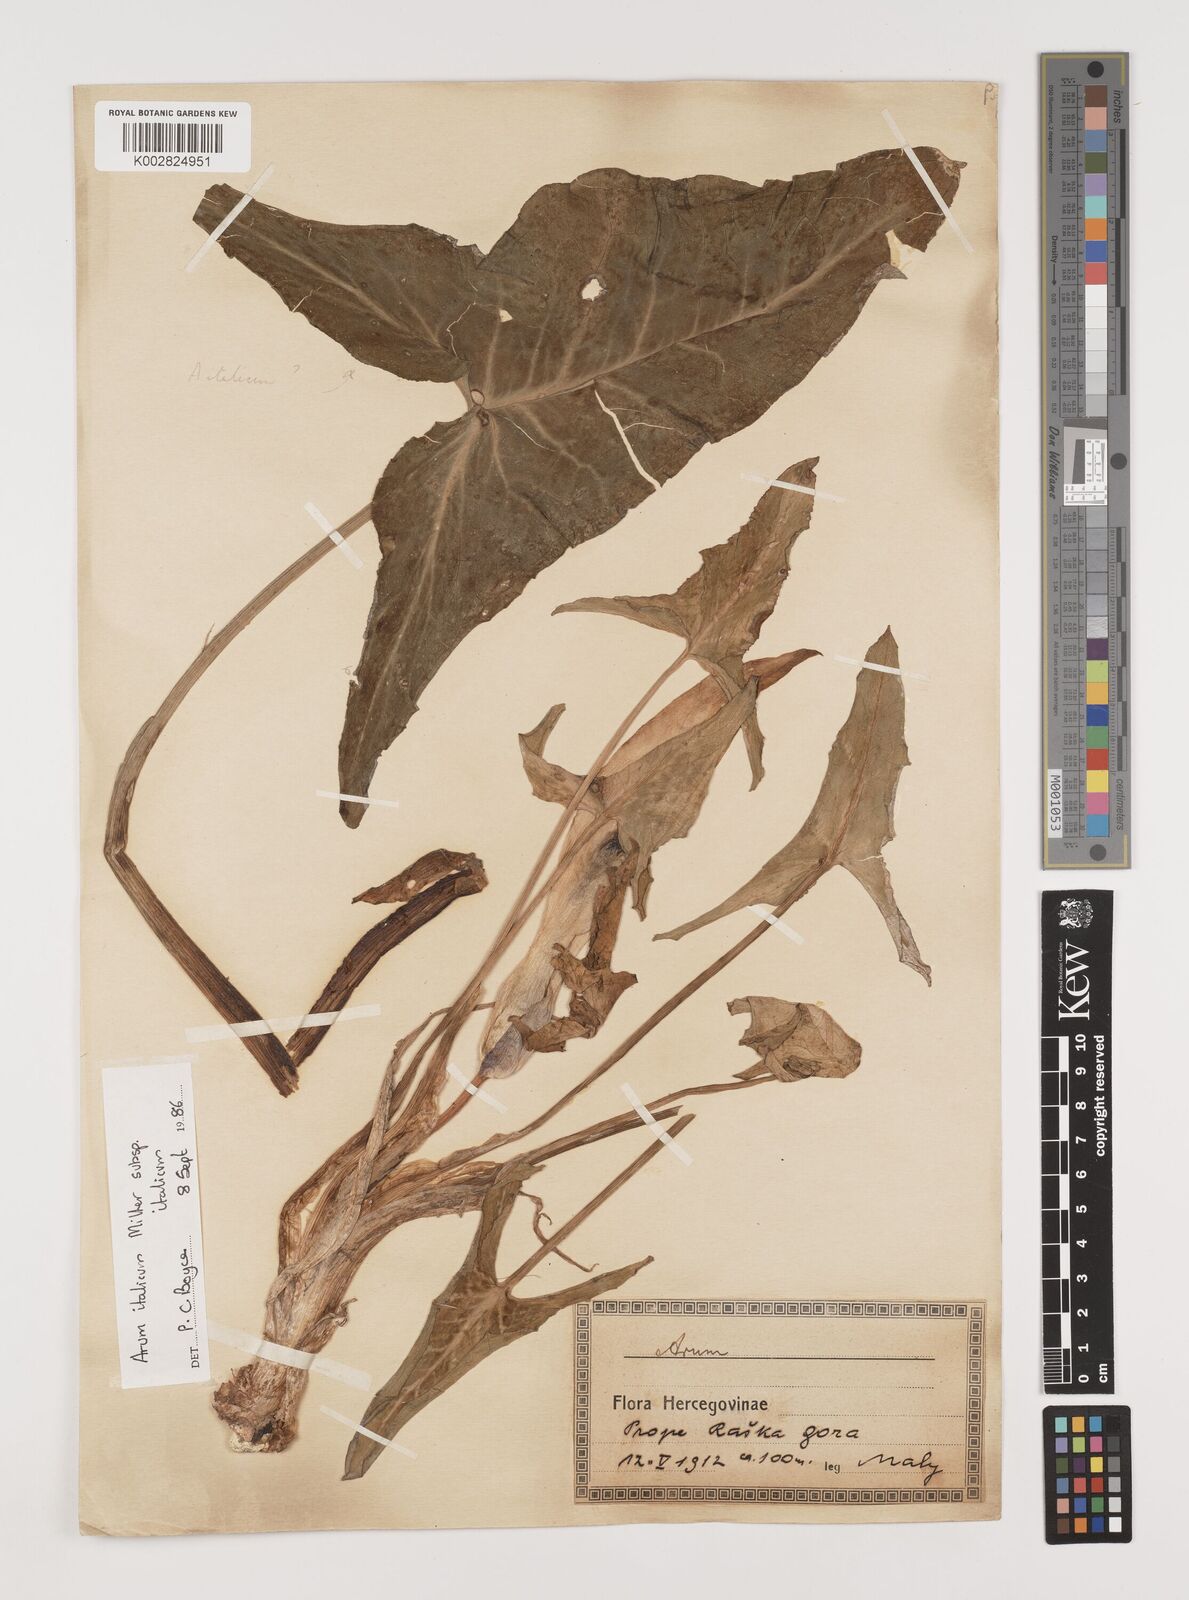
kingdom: Plantae
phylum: Tracheophyta
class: Liliopsida
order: Alismatales
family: Araceae
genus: Arum
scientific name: Arum italicum
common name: Italian lords-and-ladies
